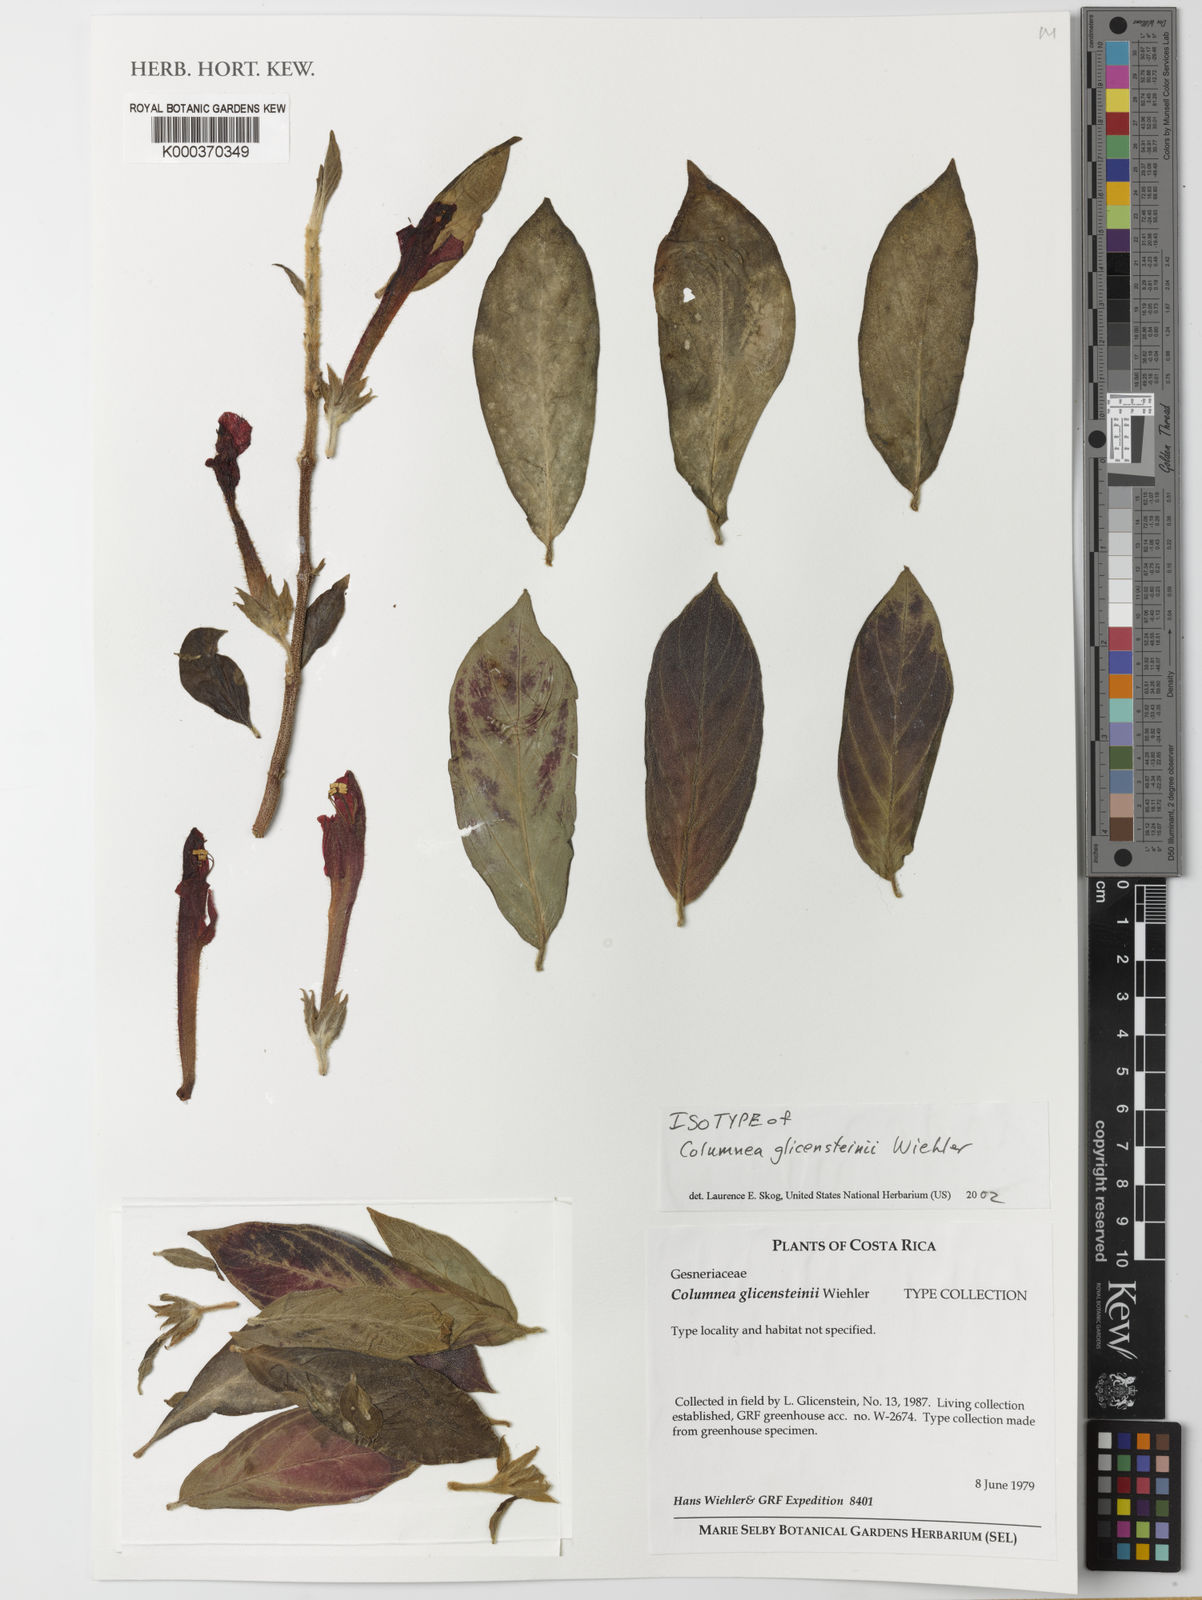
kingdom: Plantae
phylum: Tracheophyta
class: Magnoliopsida
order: Lamiales
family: Gesneriaceae
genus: Columnea
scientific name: Columnea raymondii
